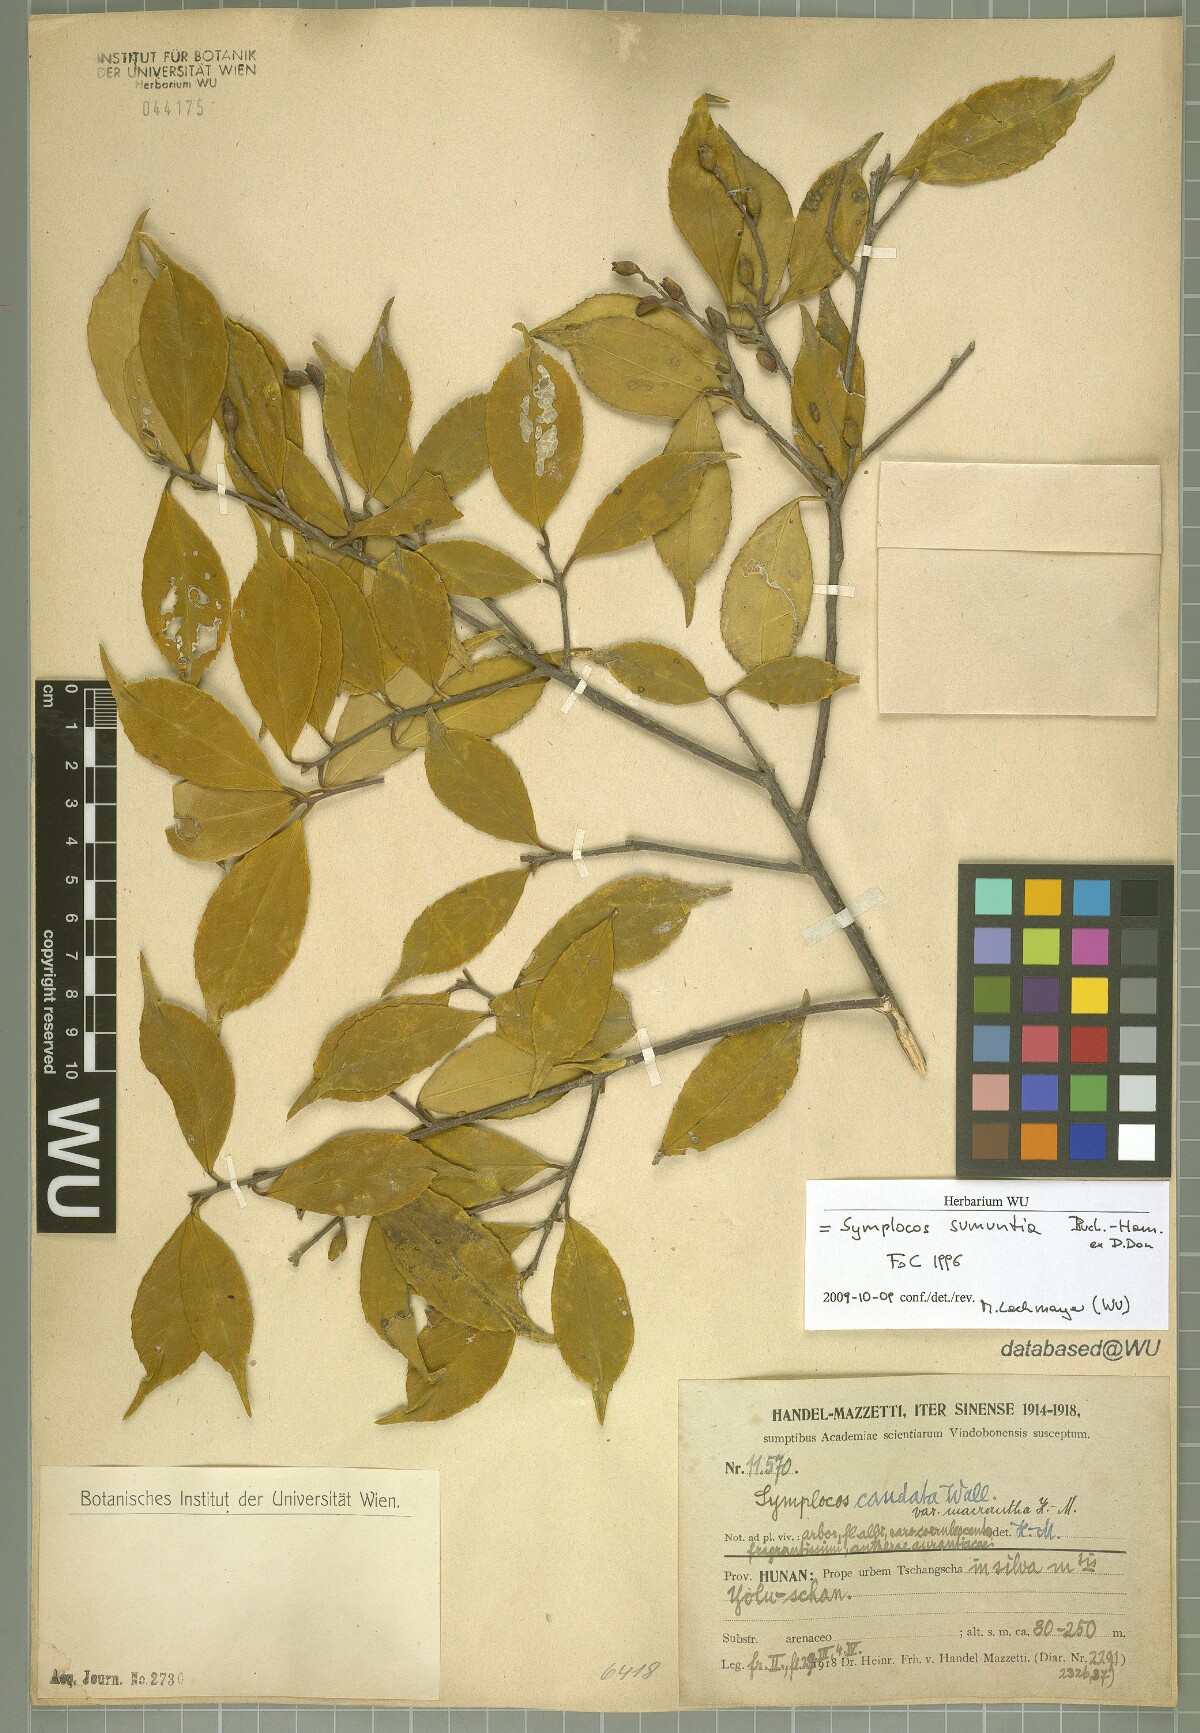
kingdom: Plantae
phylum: Tracheophyta
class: Magnoliopsida
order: Ericales
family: Symplocaceae
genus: Symplocos
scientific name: Symplocos sumuntia
